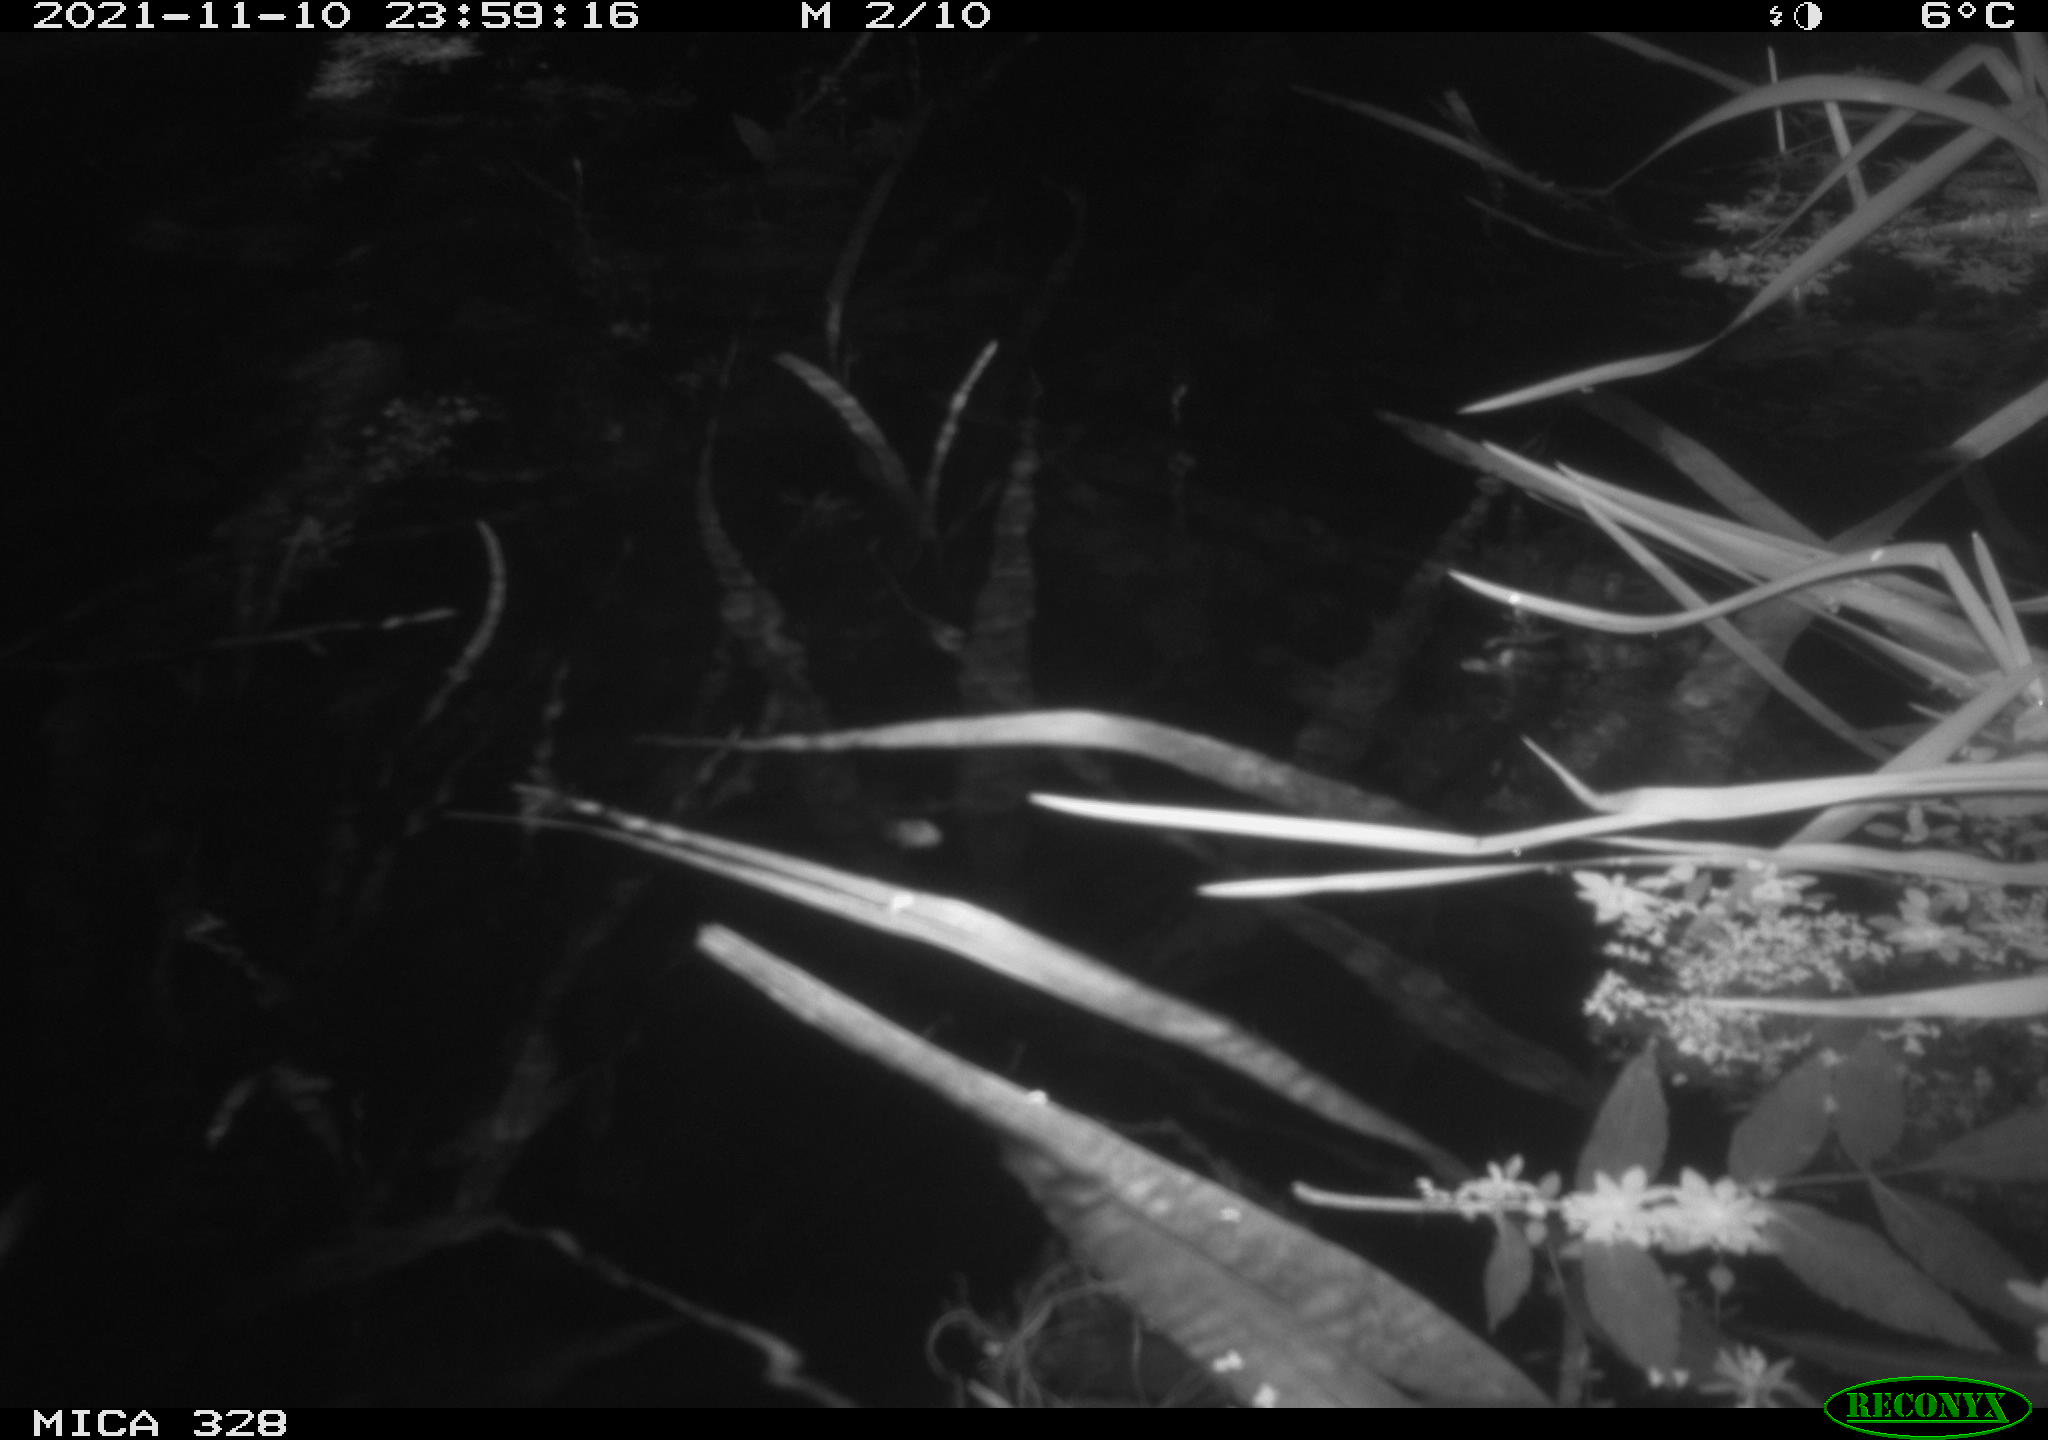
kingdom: Animalia
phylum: Chordata
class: Mammalia
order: Rodentia
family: Cricetidae
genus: Ondatra
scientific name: Ondatra zibethicus
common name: Muskrat
